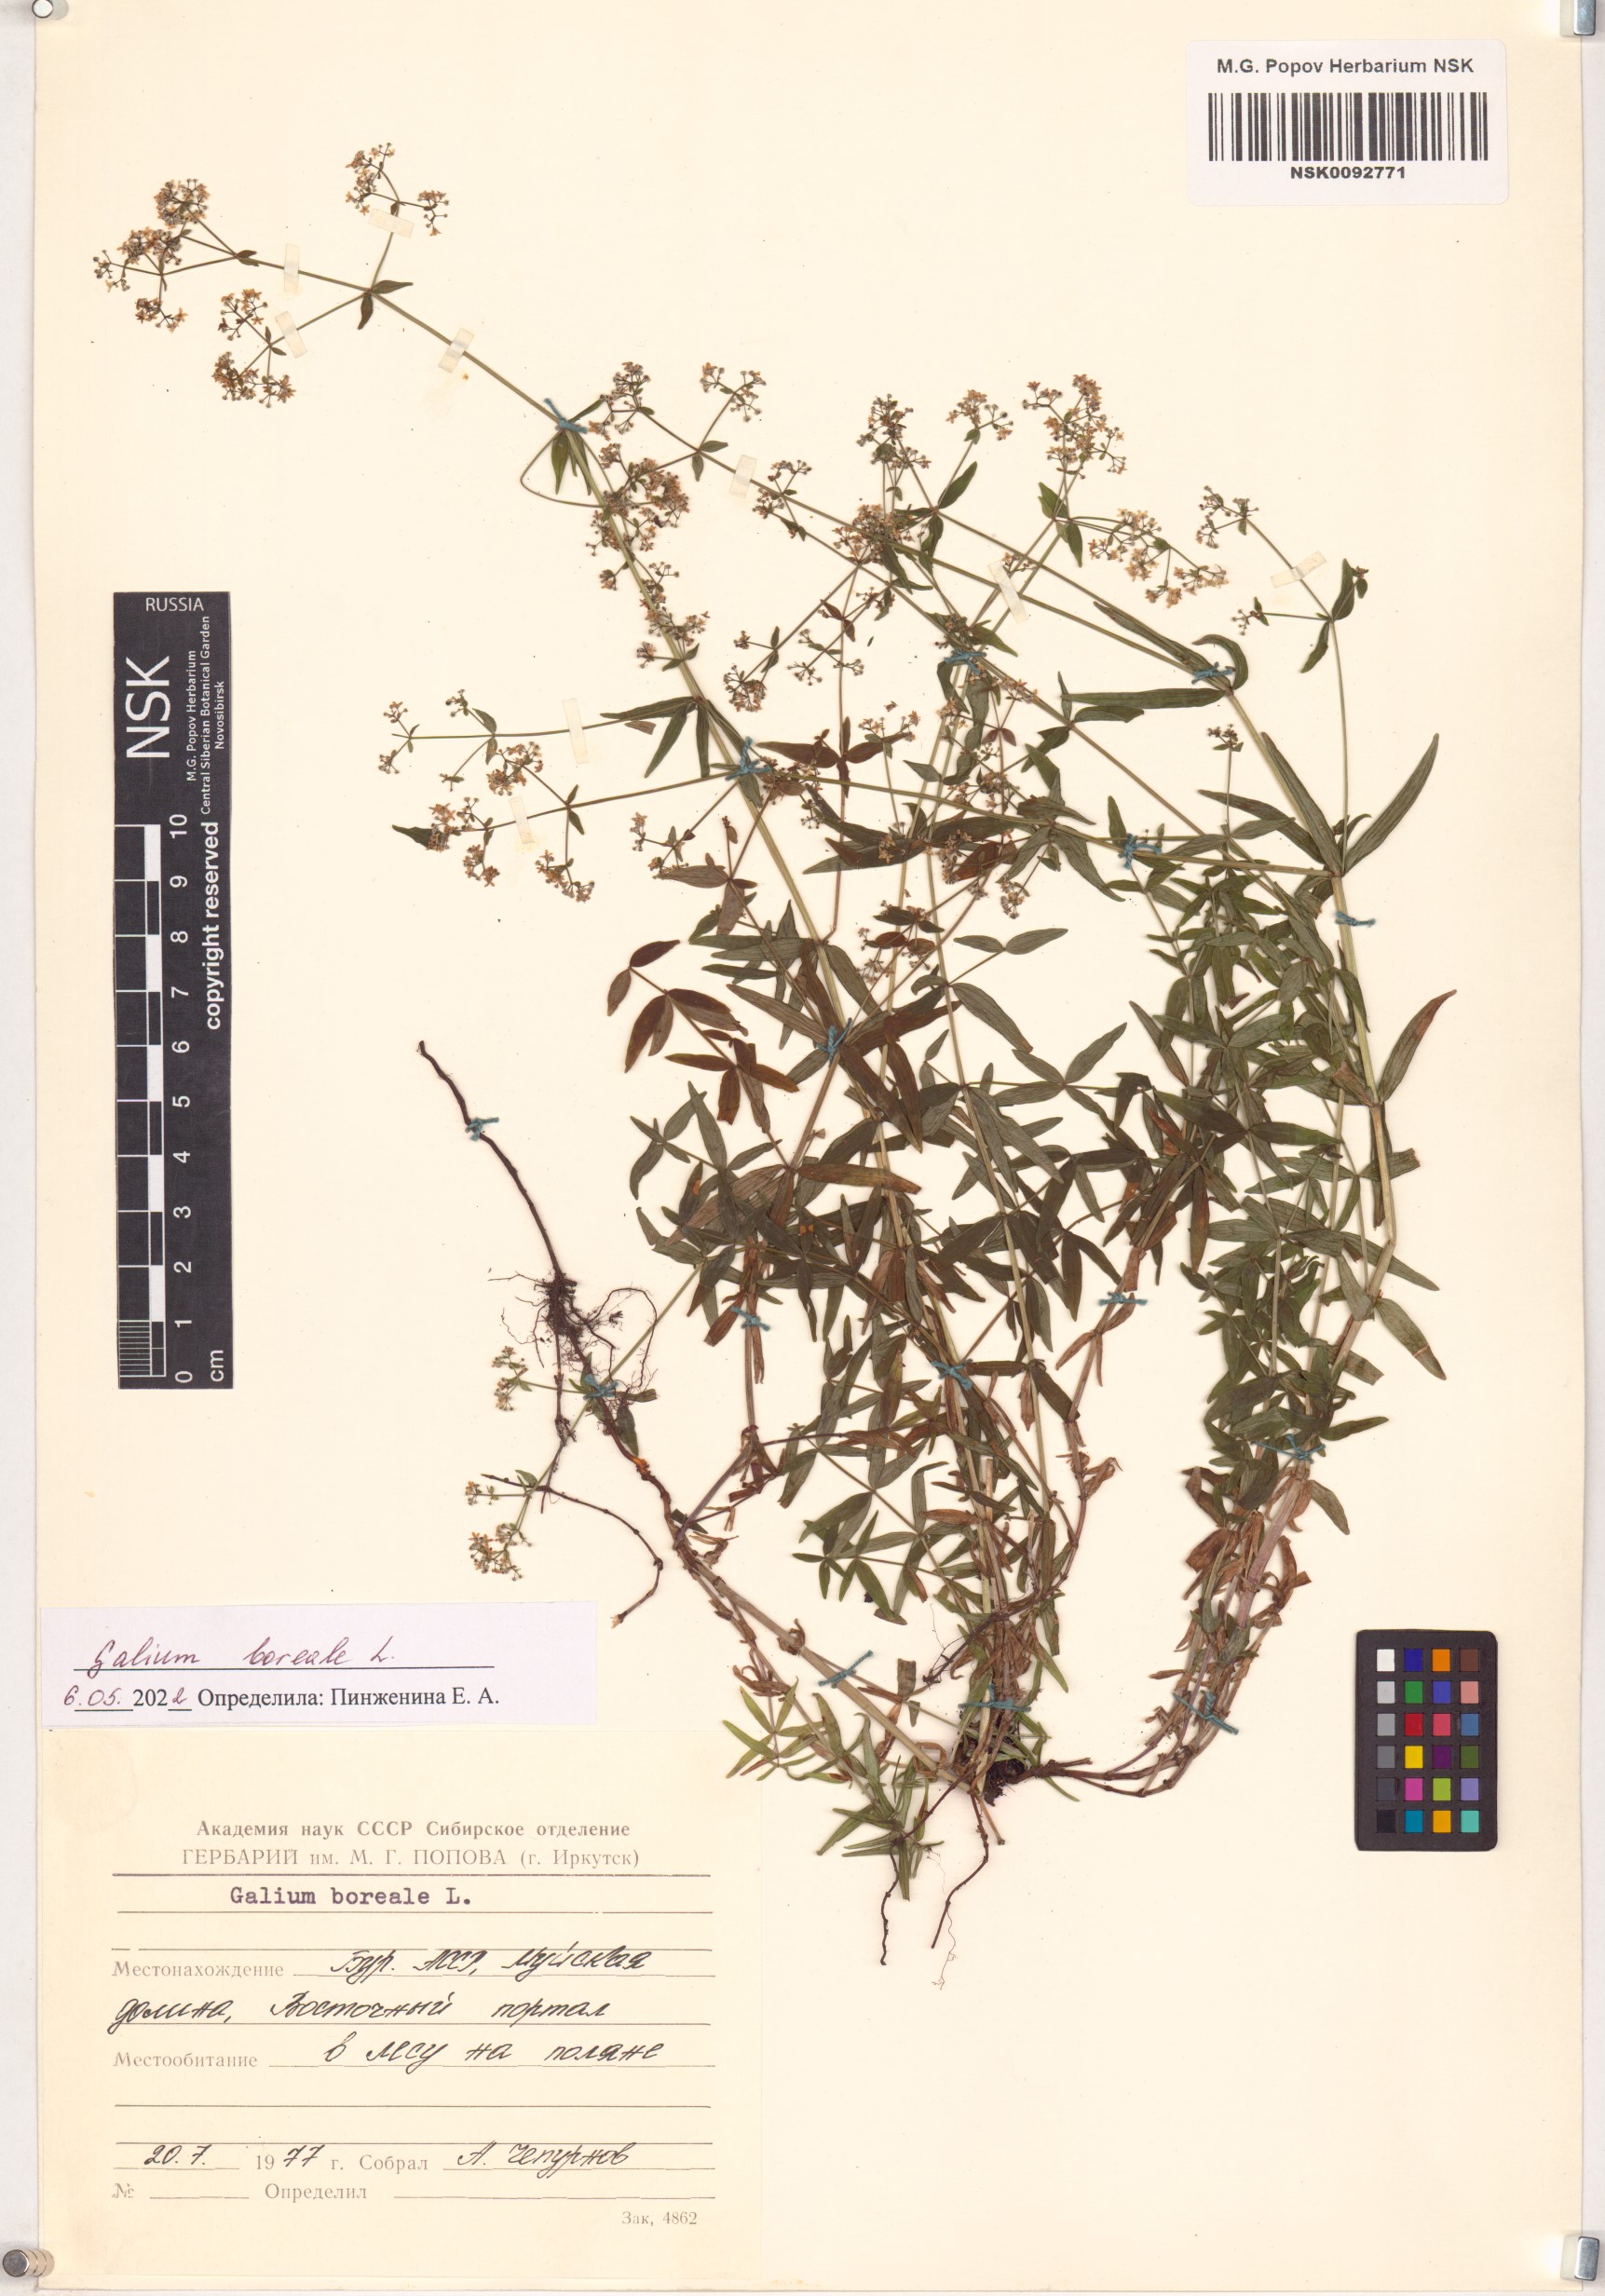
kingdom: Plantae
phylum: Tracheophyta
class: Magnoliopsida
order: Gentianales
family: Rubiaceae
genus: Galium
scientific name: Galium boreale
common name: Northern bedstraw
